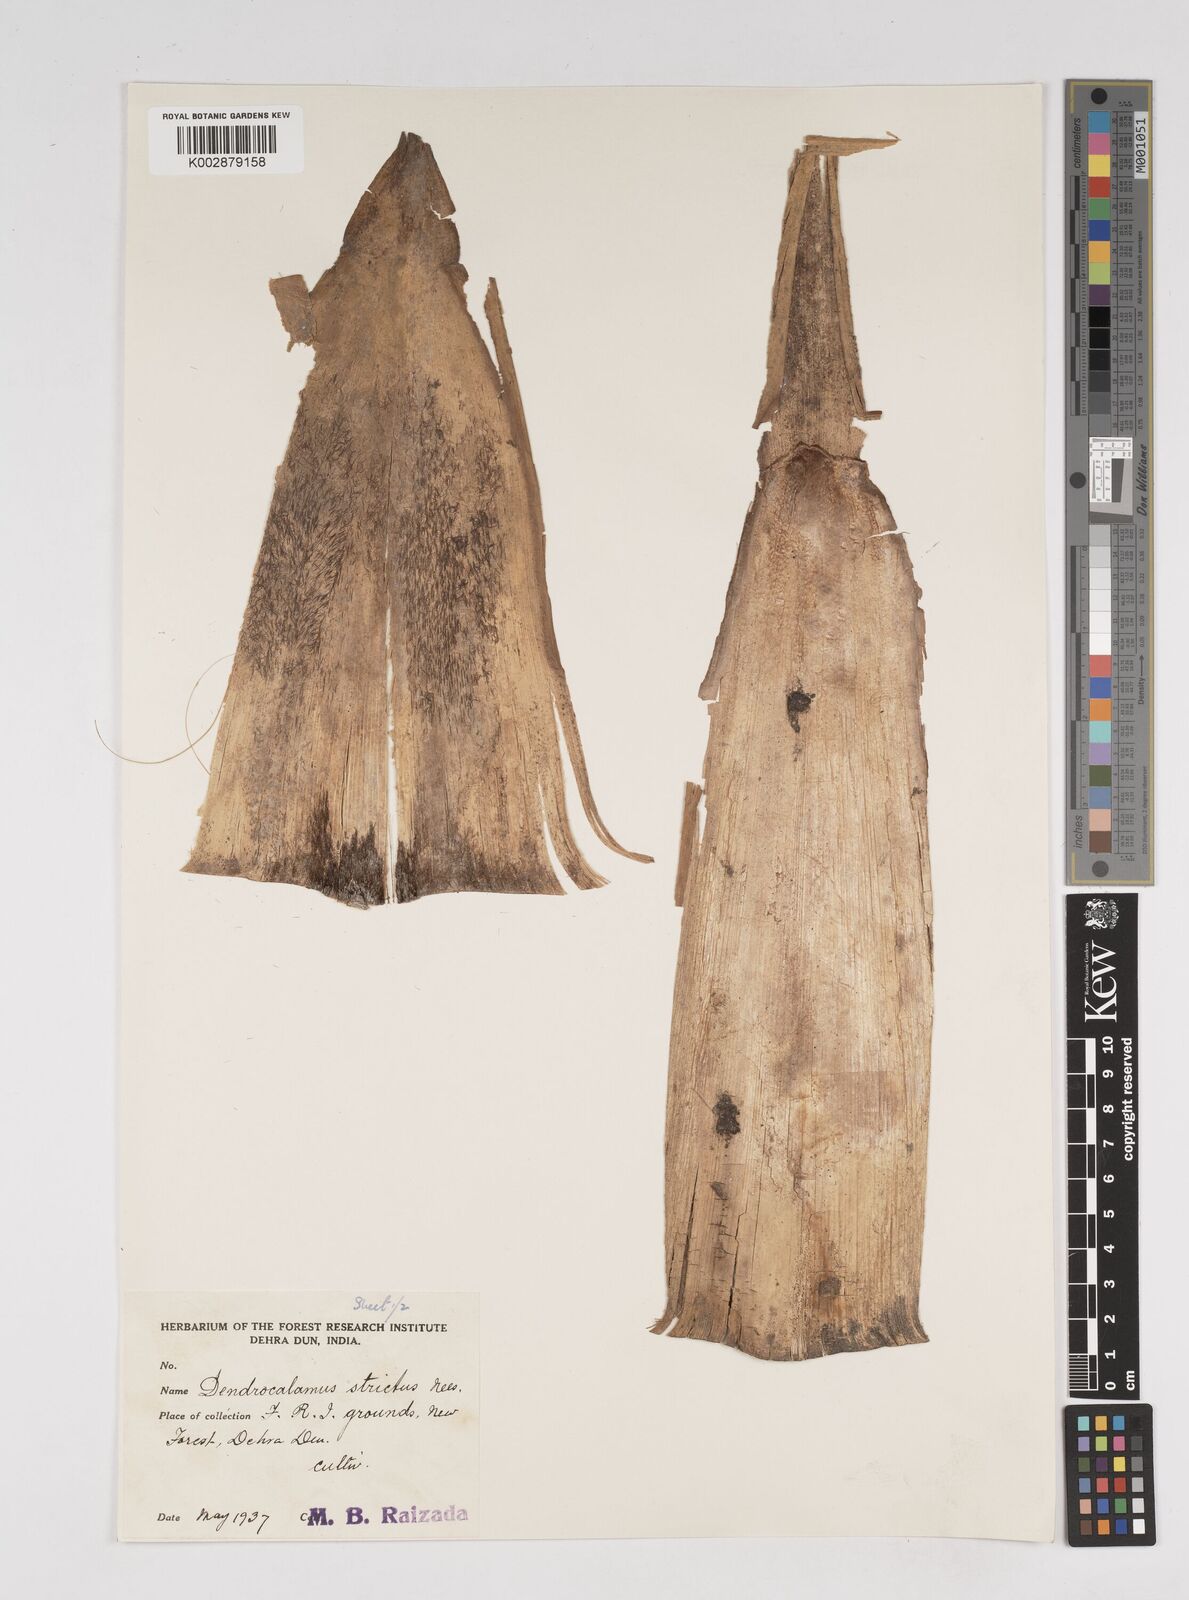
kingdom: Plantae
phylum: Tracheophyta
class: Liliopsida
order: Poales
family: Poaceae
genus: Dendrocalamus
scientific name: Dendrocalamus strictus
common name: Male bamboo
